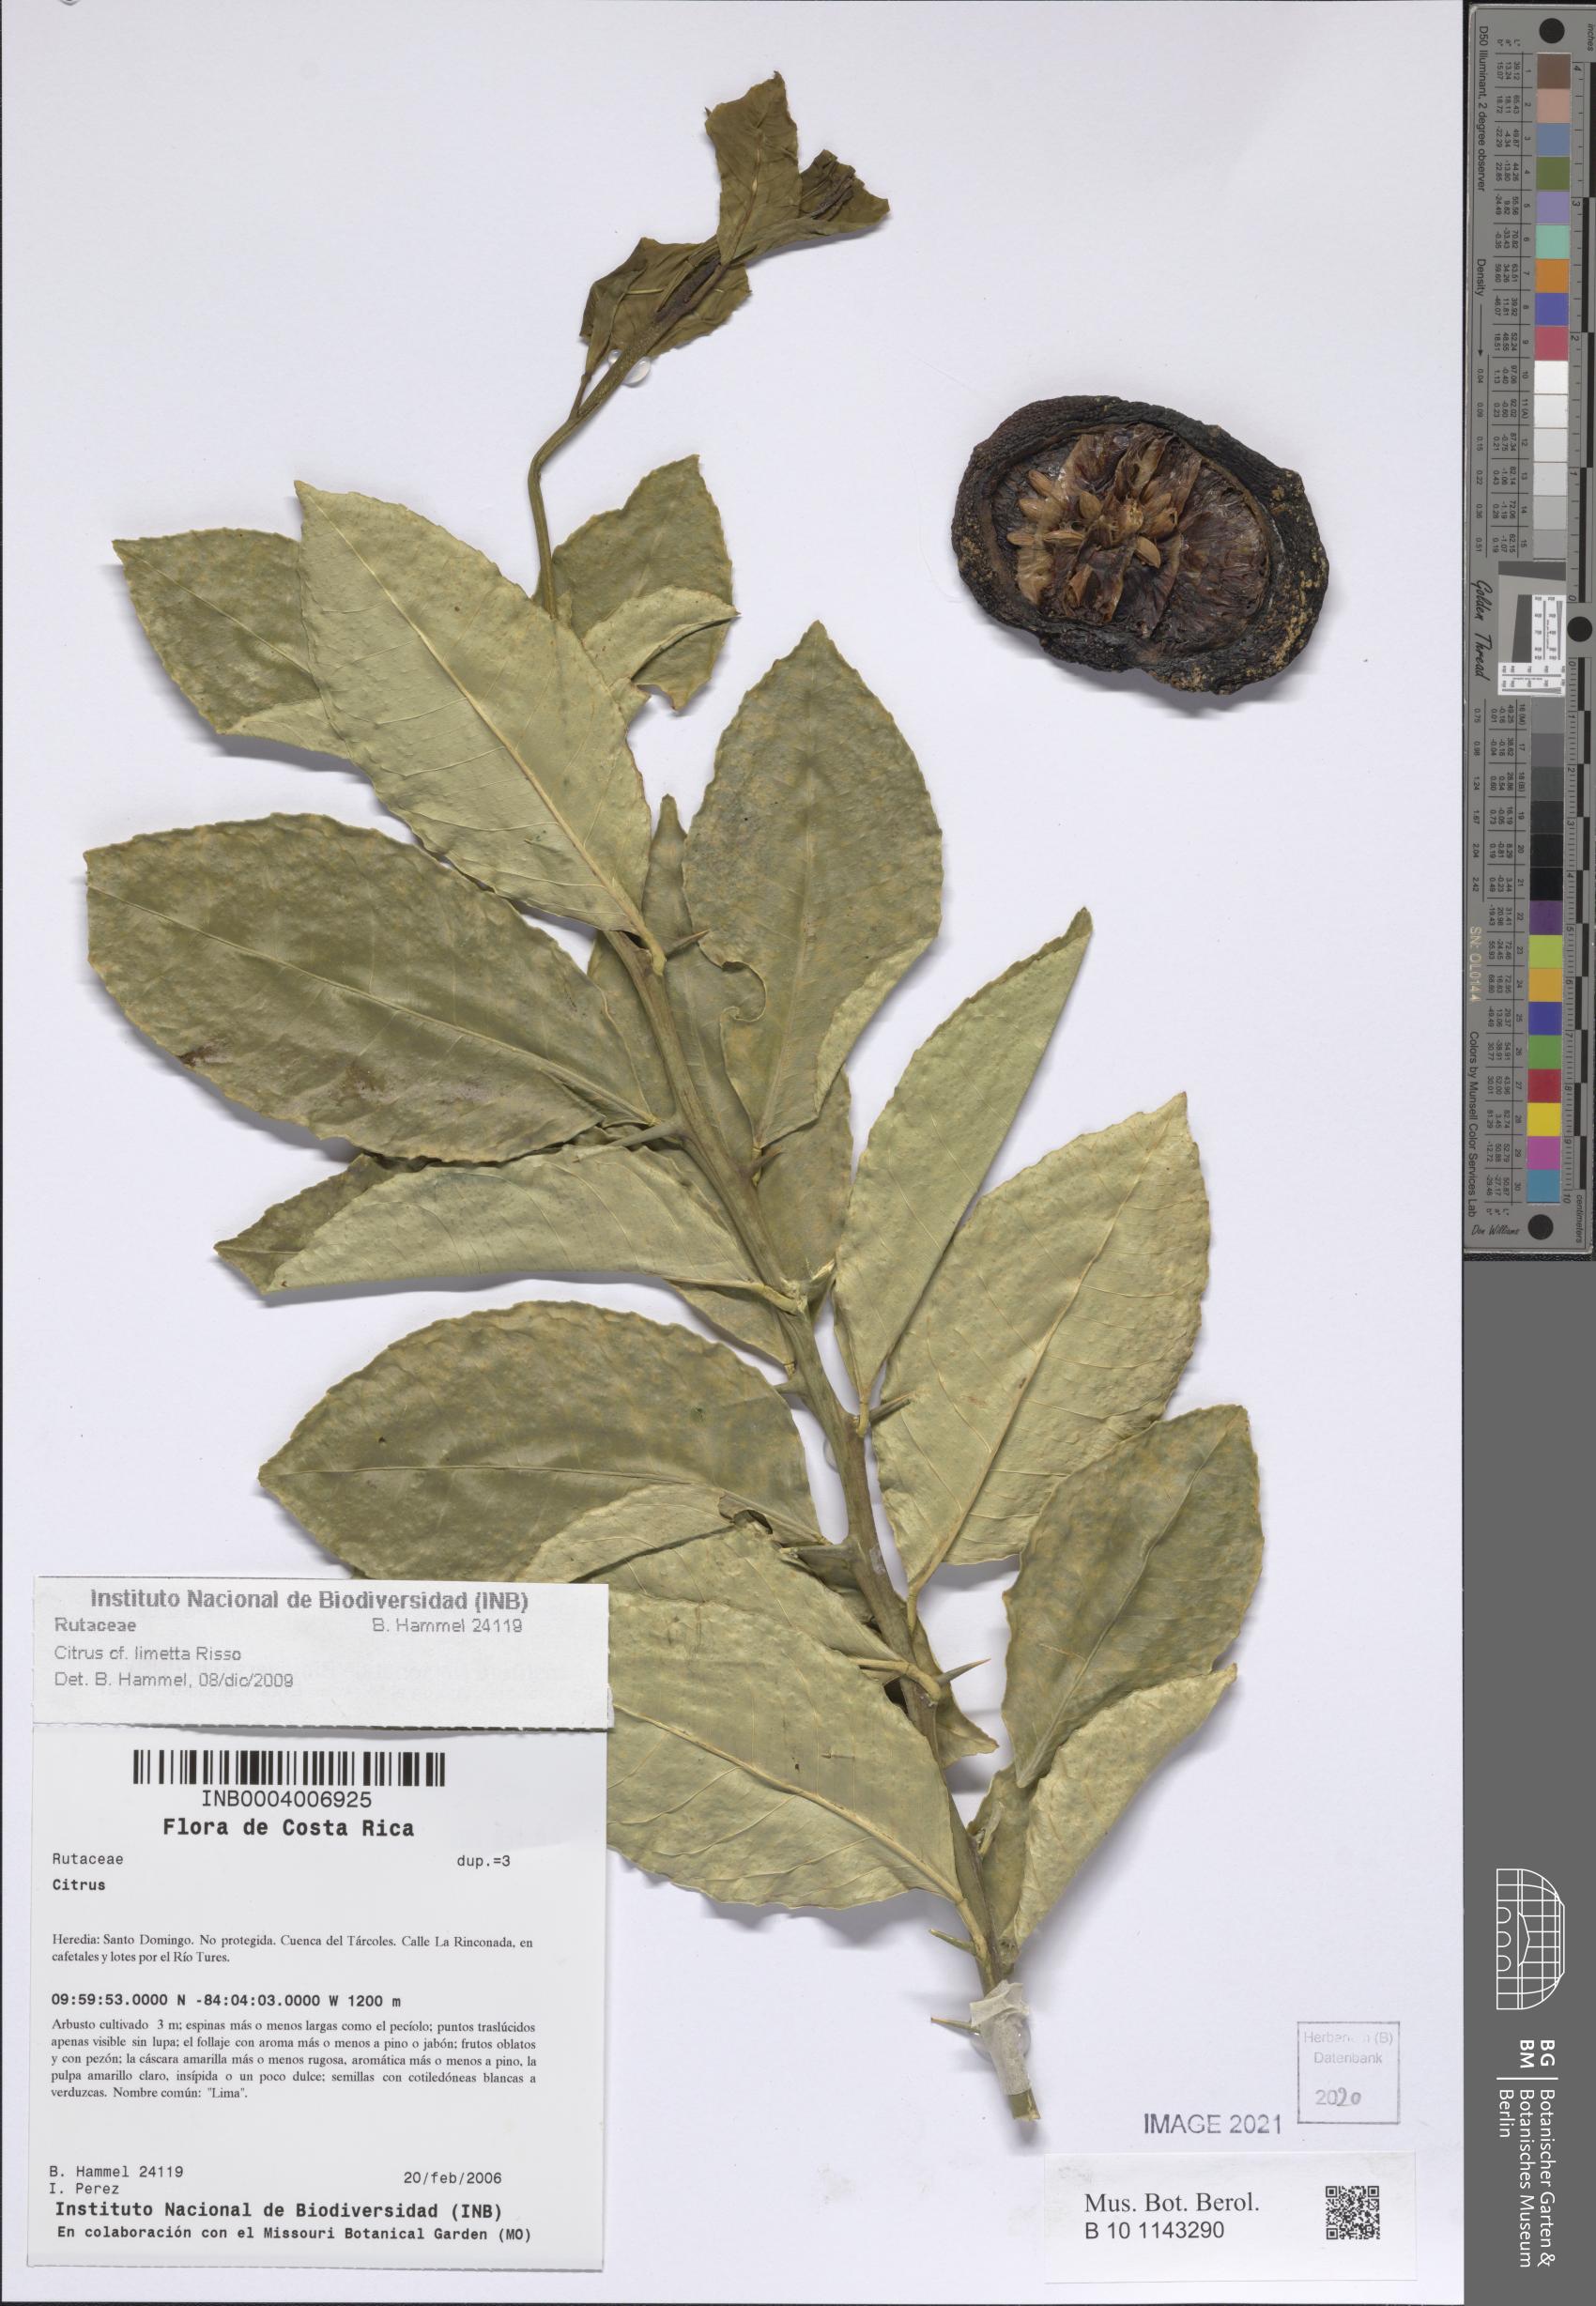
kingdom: Plantae
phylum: Tracheophyta
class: Magnoliopsida
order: Sapindales
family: Rutaceae
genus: Citrus
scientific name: Citrus
